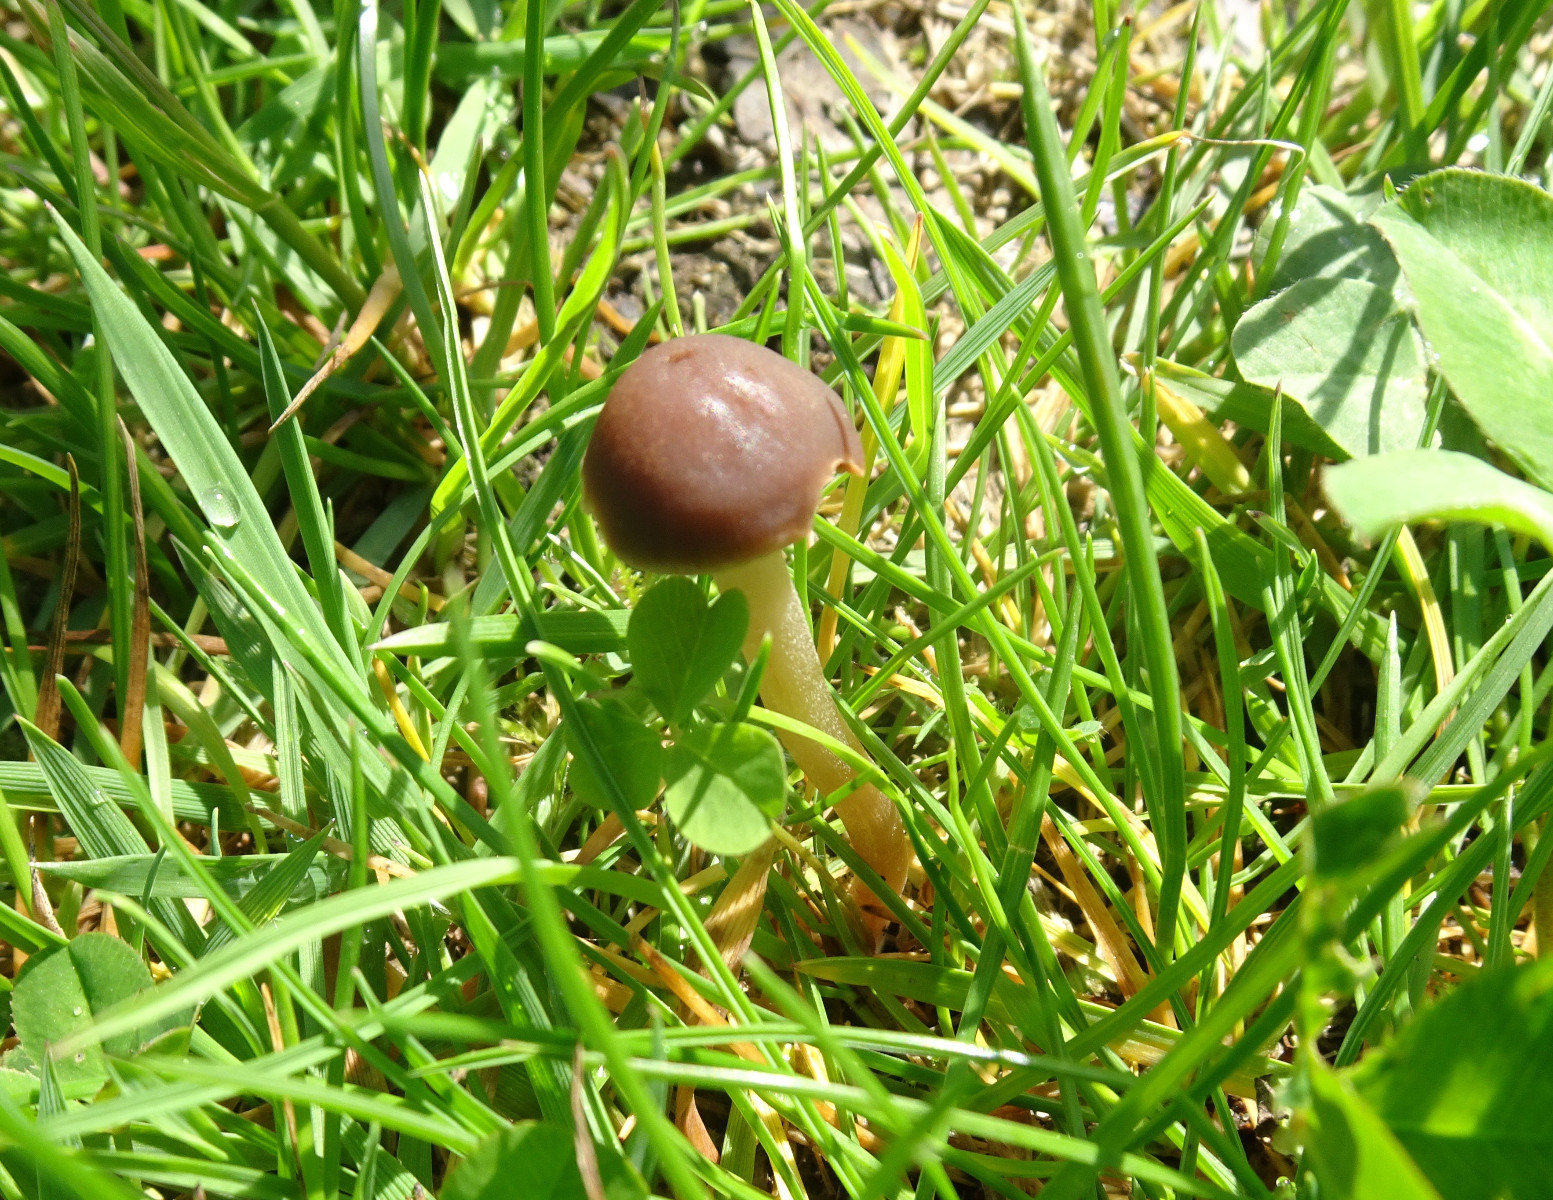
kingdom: Fungi
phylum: Basidiomycota
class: Agaricomycetes
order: Agaricales
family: Bolbitiaceae
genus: Panaeolina
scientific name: Panaeolina foenisecii
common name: høslætsvamp
